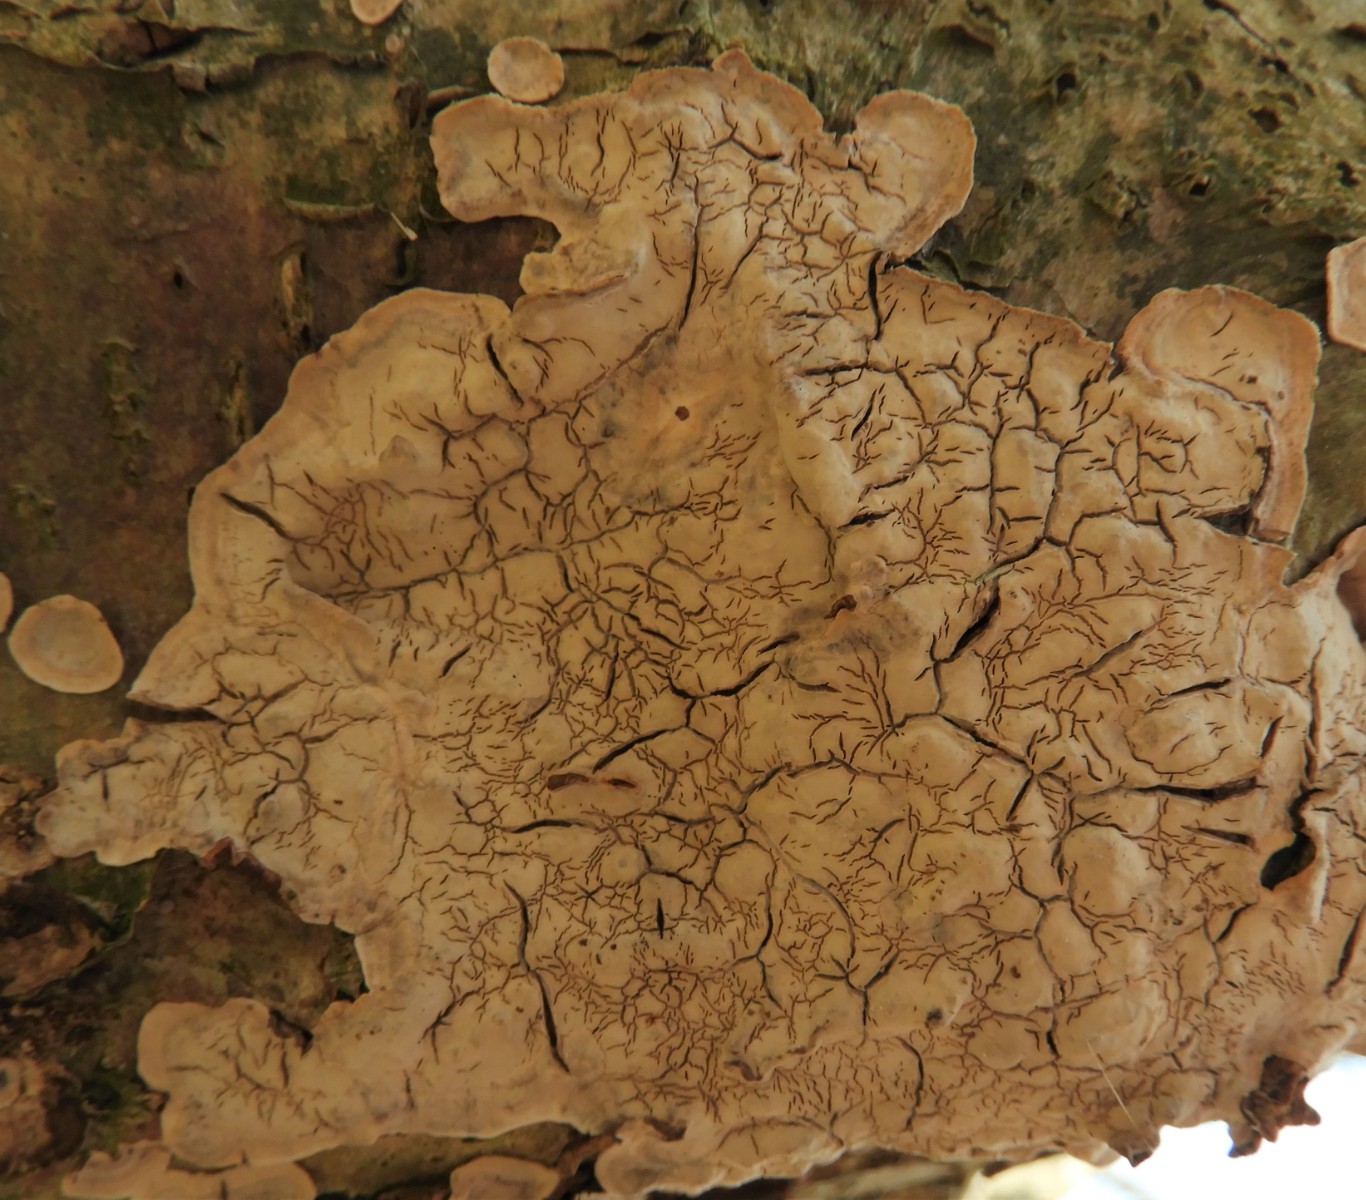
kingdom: Fungi
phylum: Basidiomycota
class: Agaricomycetes
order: Agaricales
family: Physalacriaceae
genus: Cylindrobasidium
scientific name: Cylindrobasidium evolvens
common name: sprækkehinde
